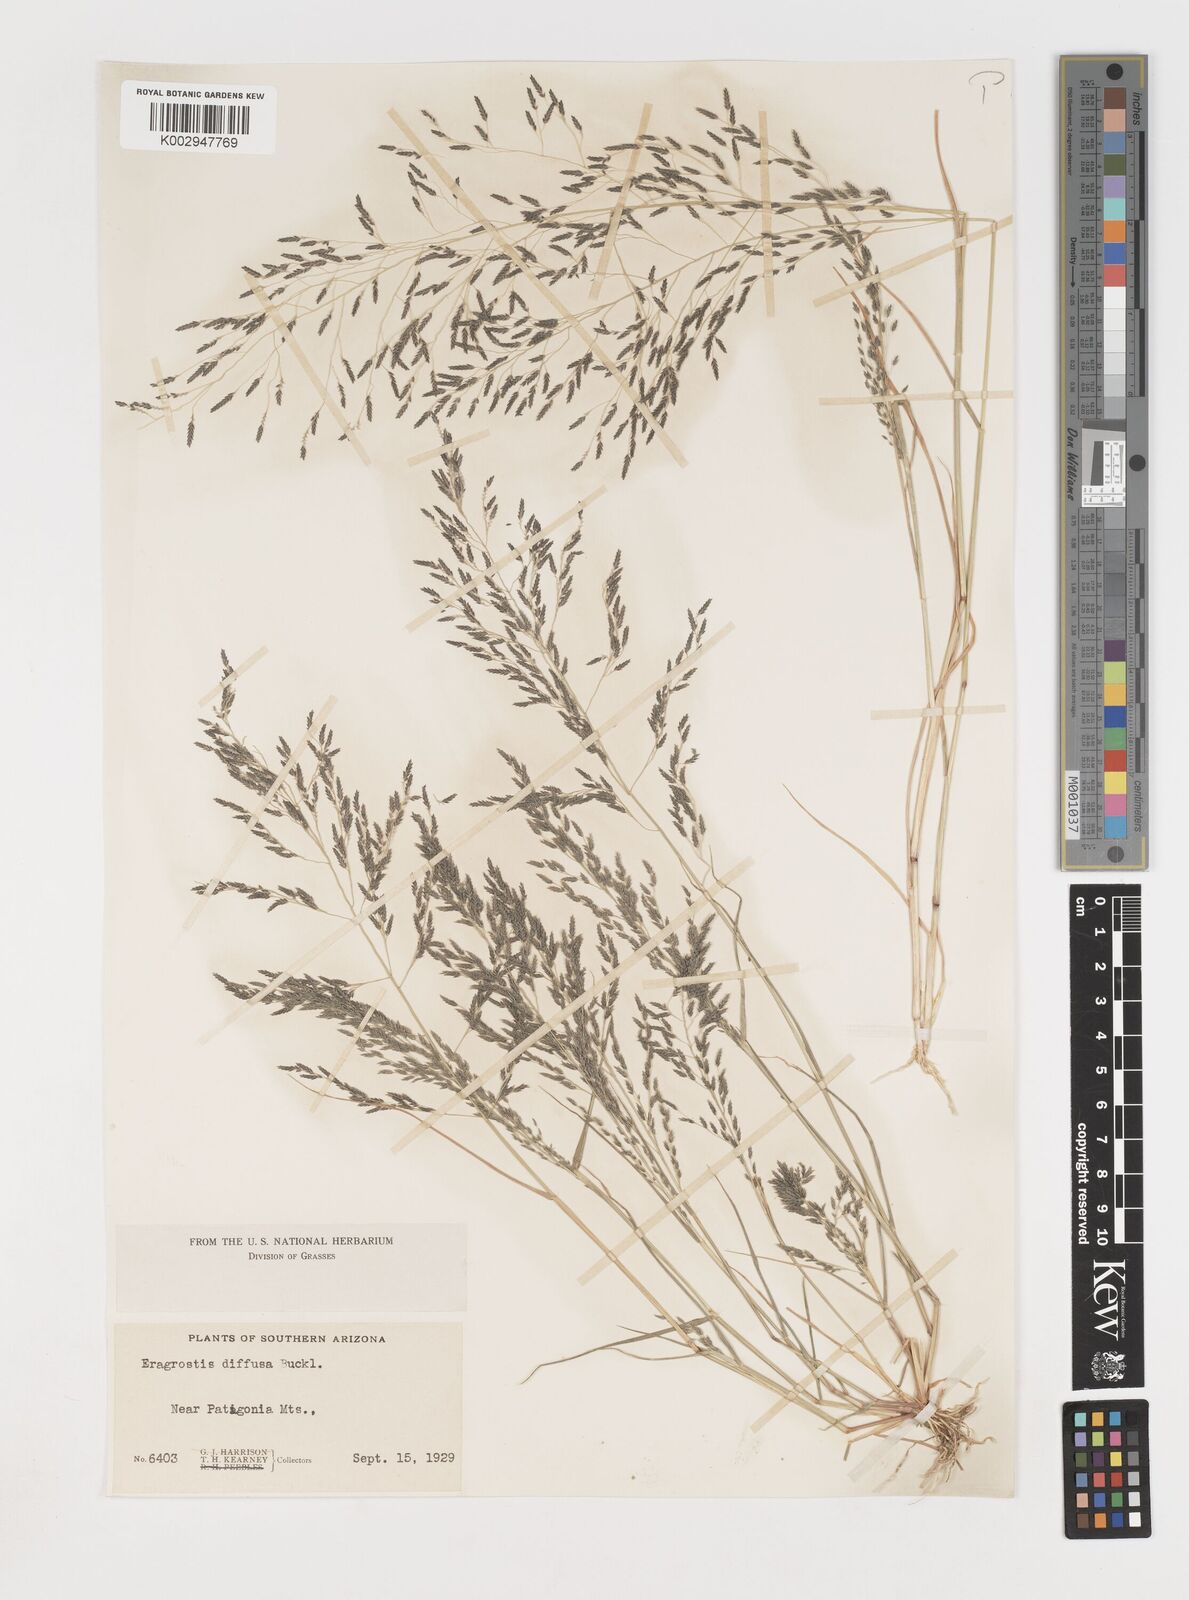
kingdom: Plantae
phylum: Tracheophyta
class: Liliopsida
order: Poales
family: Poaceae
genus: Eragrostis
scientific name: Eragrostis pectinacea
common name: Tufted lovegrass
